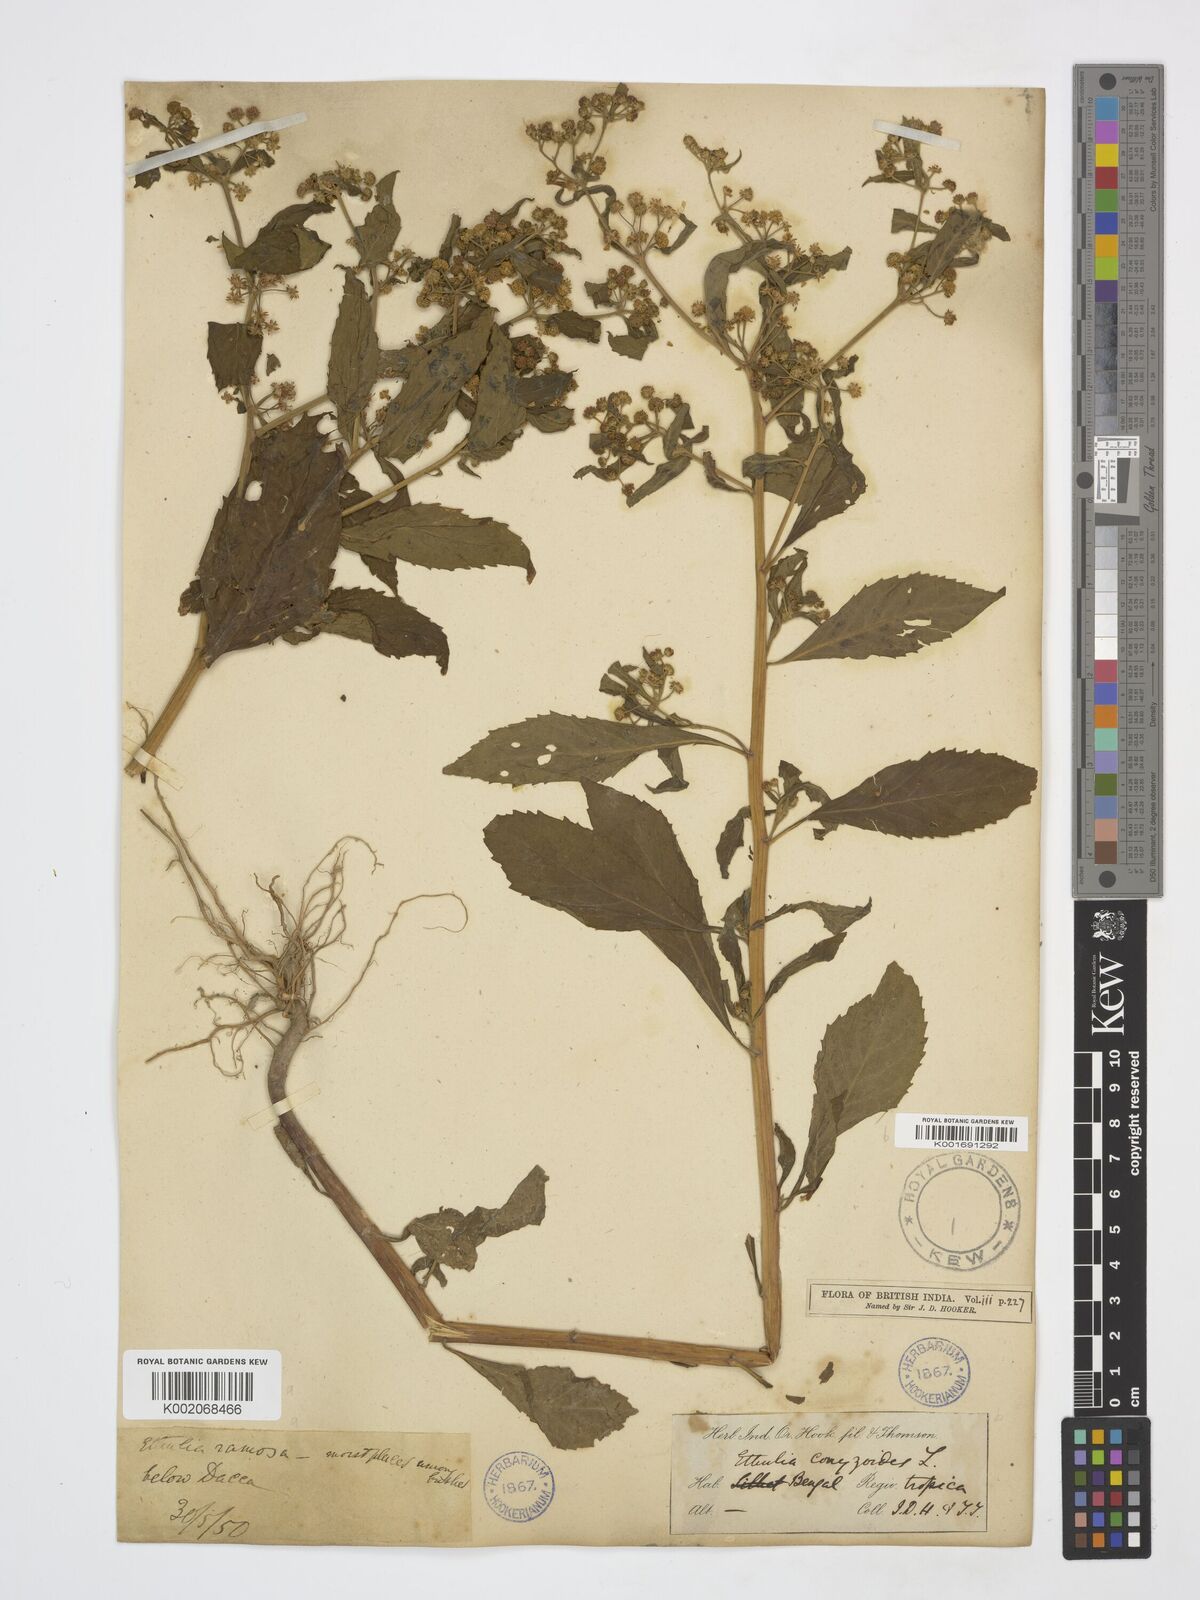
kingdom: Plantae
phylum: Tracheophyta
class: Magnoliopsida
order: Asterales
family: Asteraceae
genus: Ethulia
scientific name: Ethulia conyzoides
